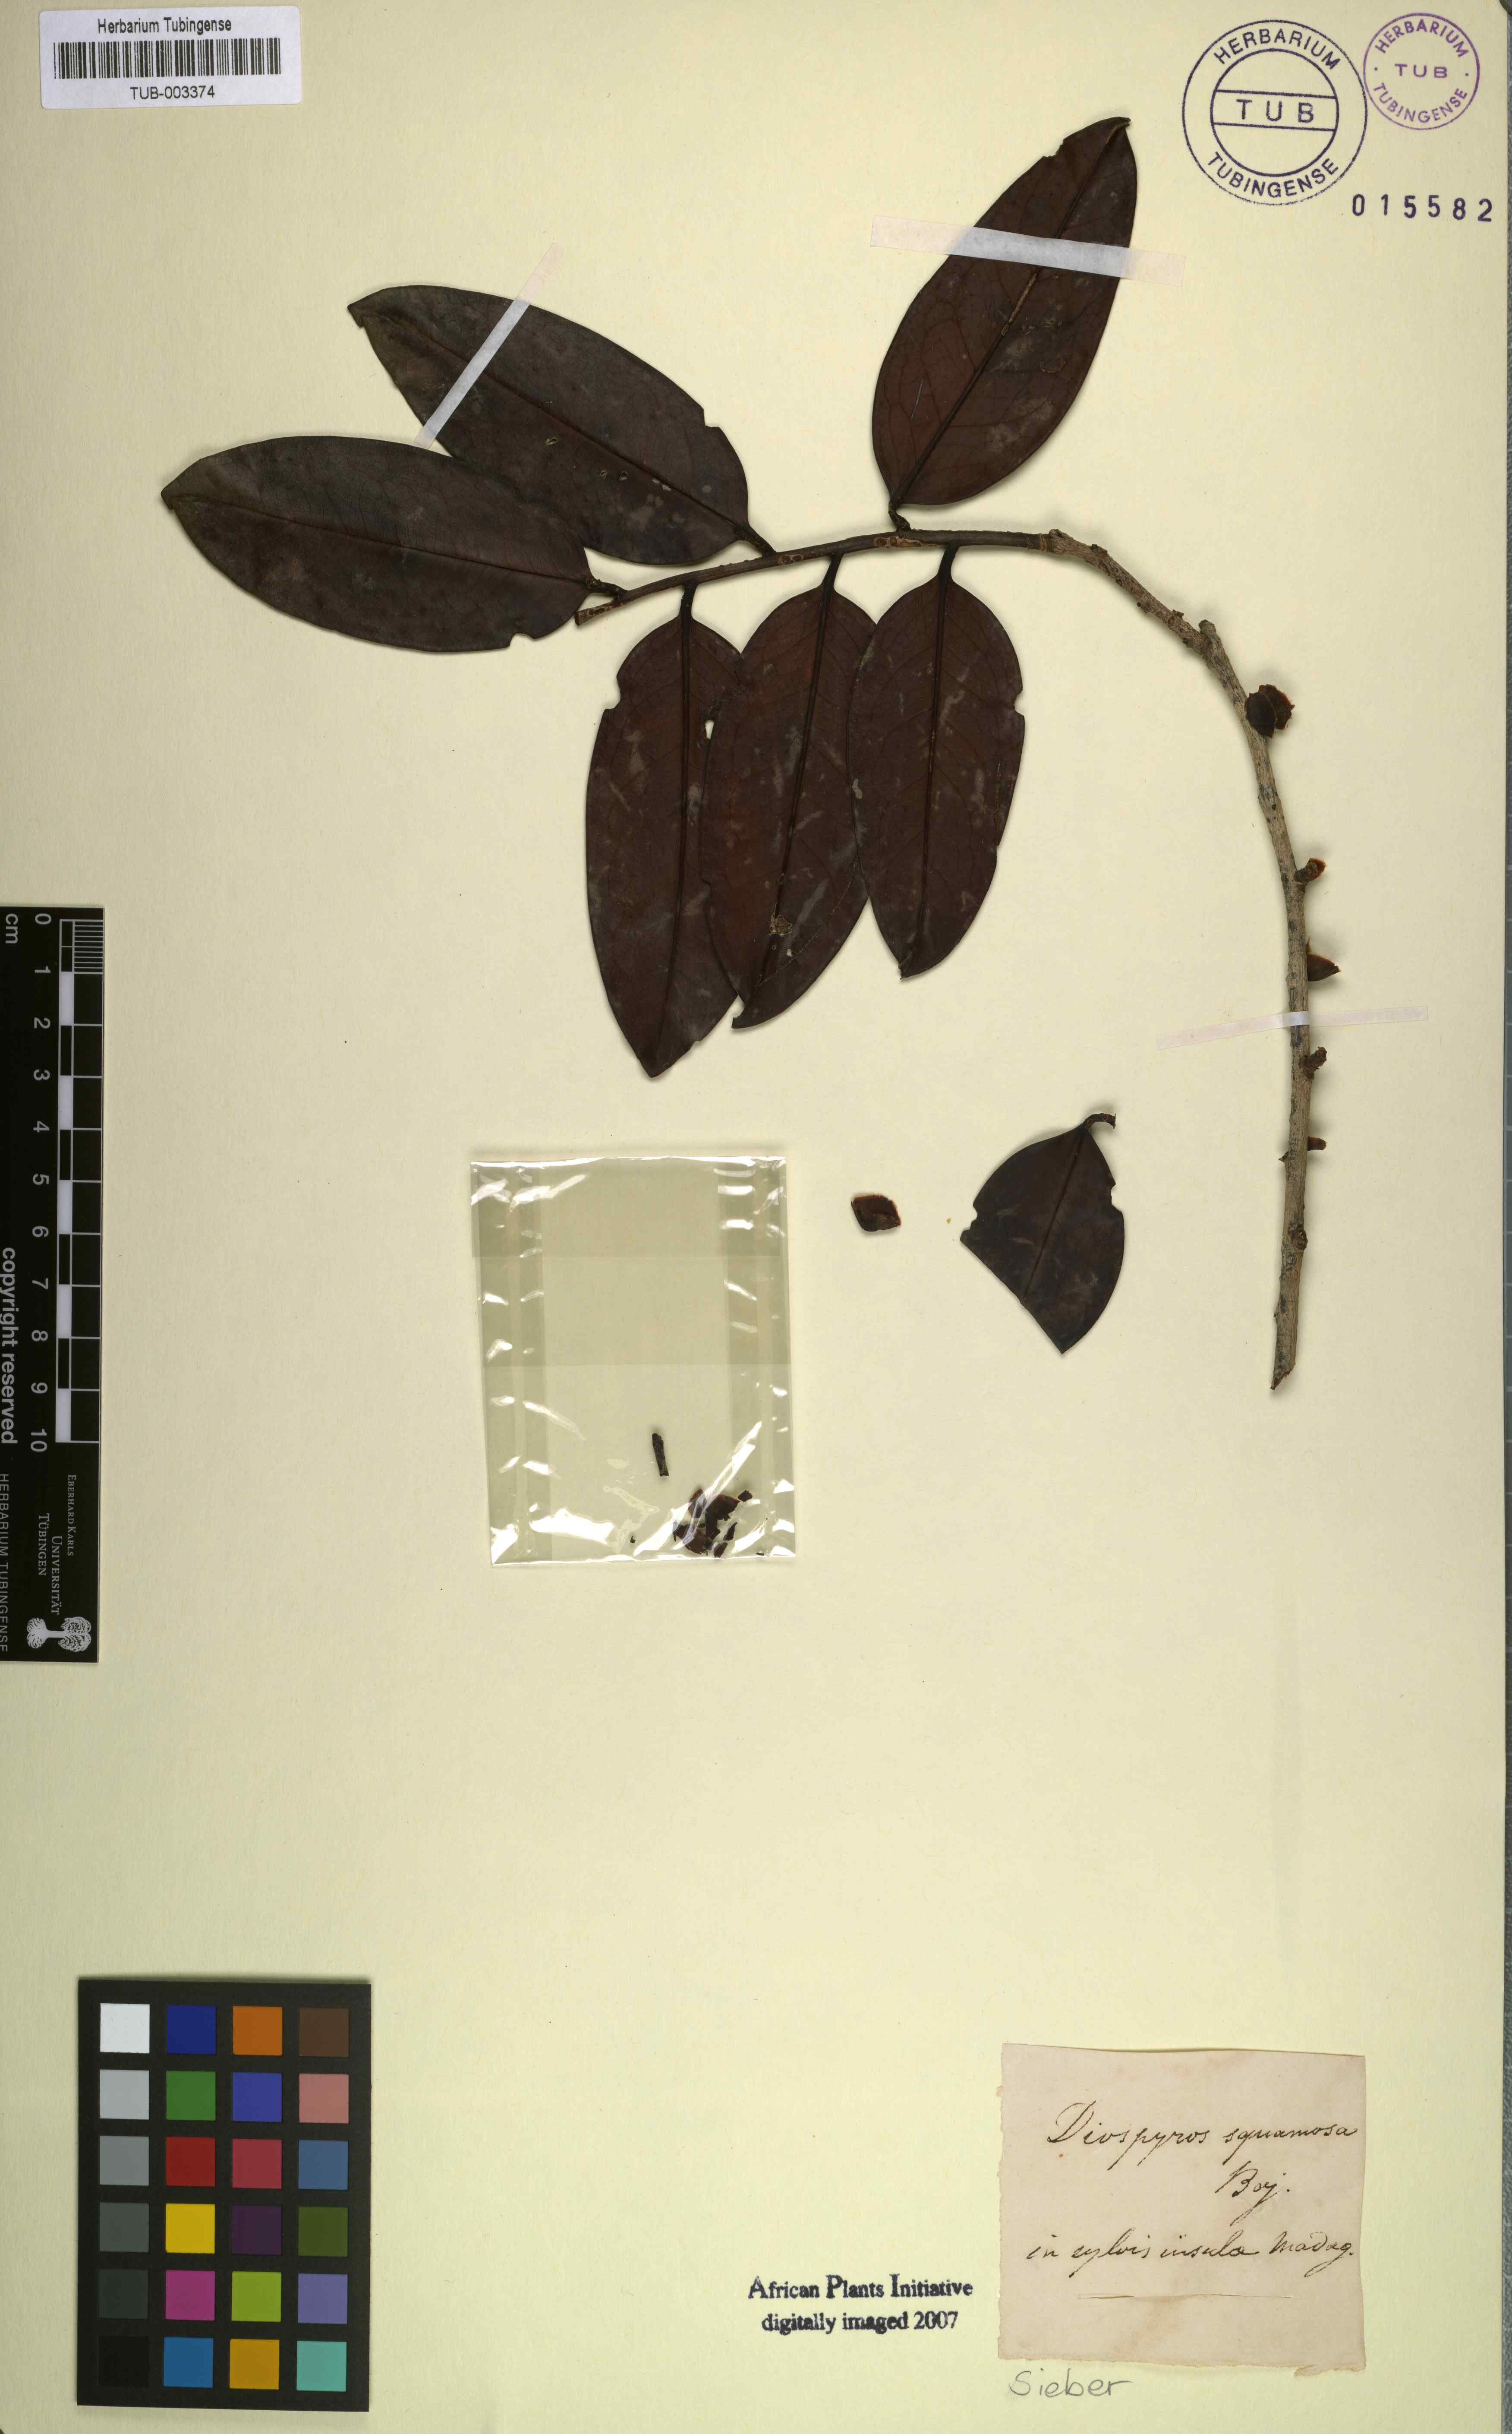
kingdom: Plantae
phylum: Tracheophyta
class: Magnoliopsida
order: Ericales
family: Ebenaceae
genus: Diospyros
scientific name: Diospyros squamosa
